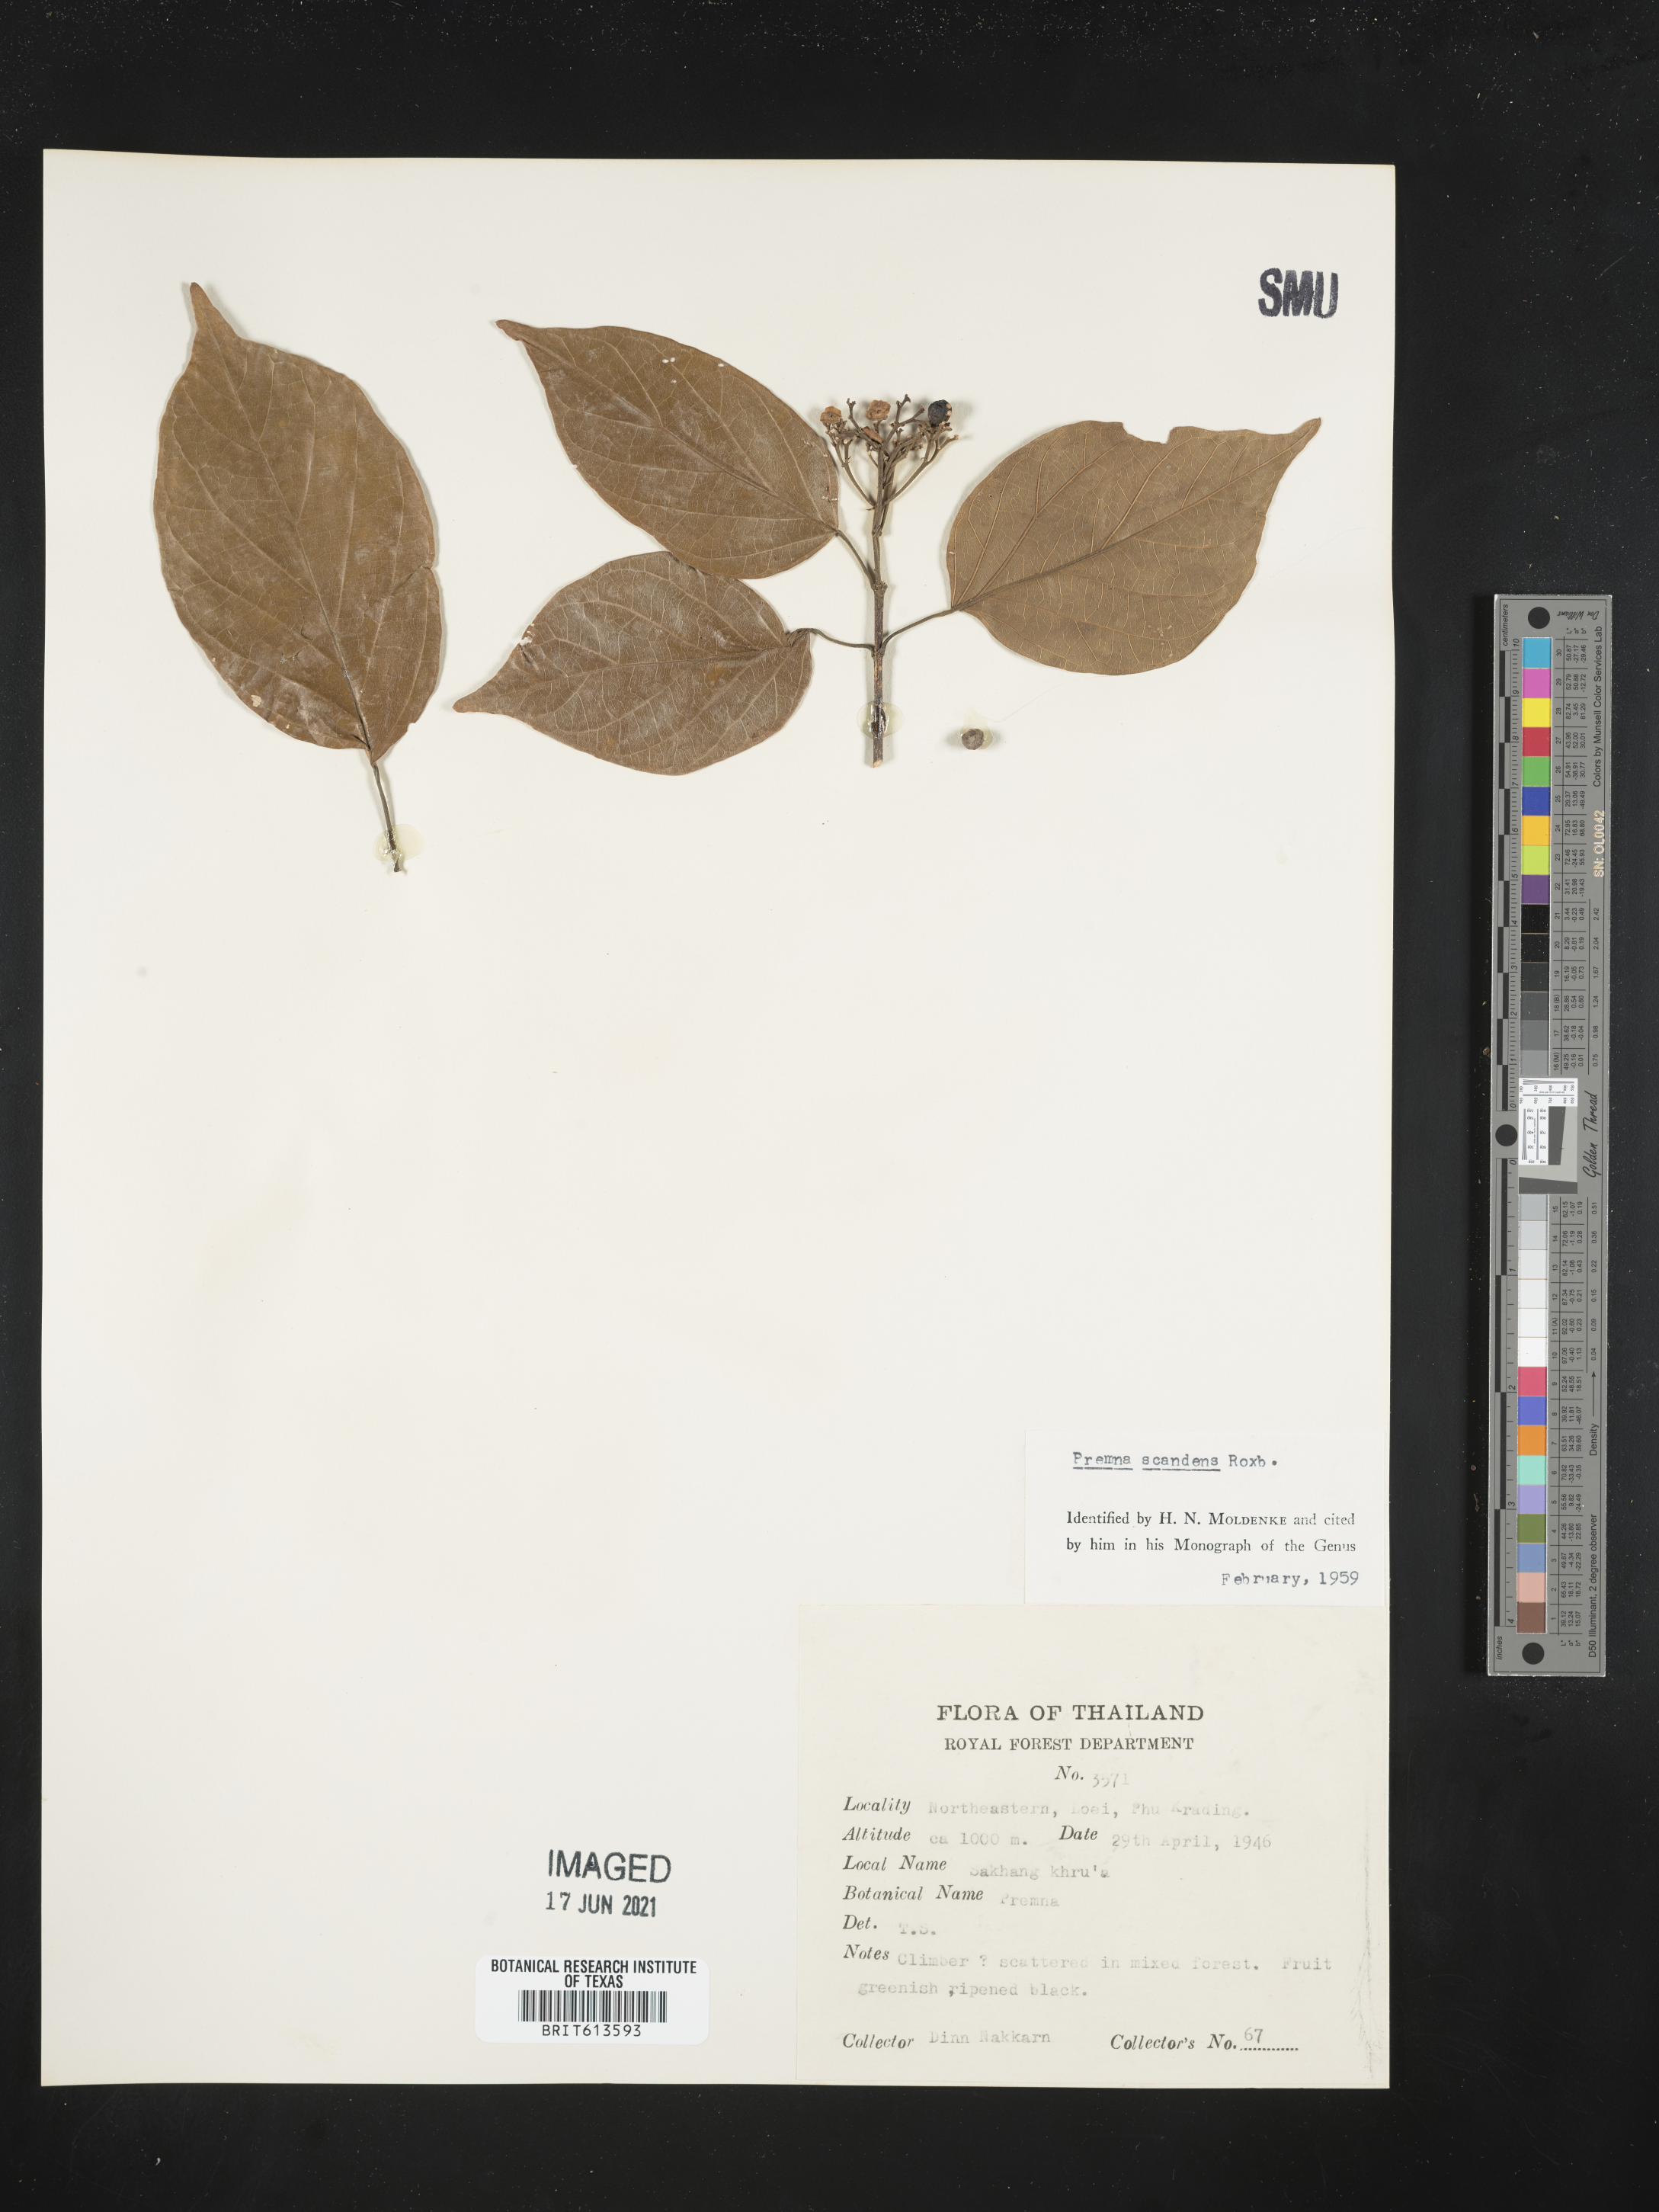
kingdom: Plantae
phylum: Tracheophyta
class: Magnoliopsida
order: Lamiales
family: Lamiaceae
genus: Premna
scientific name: Premna scandens
